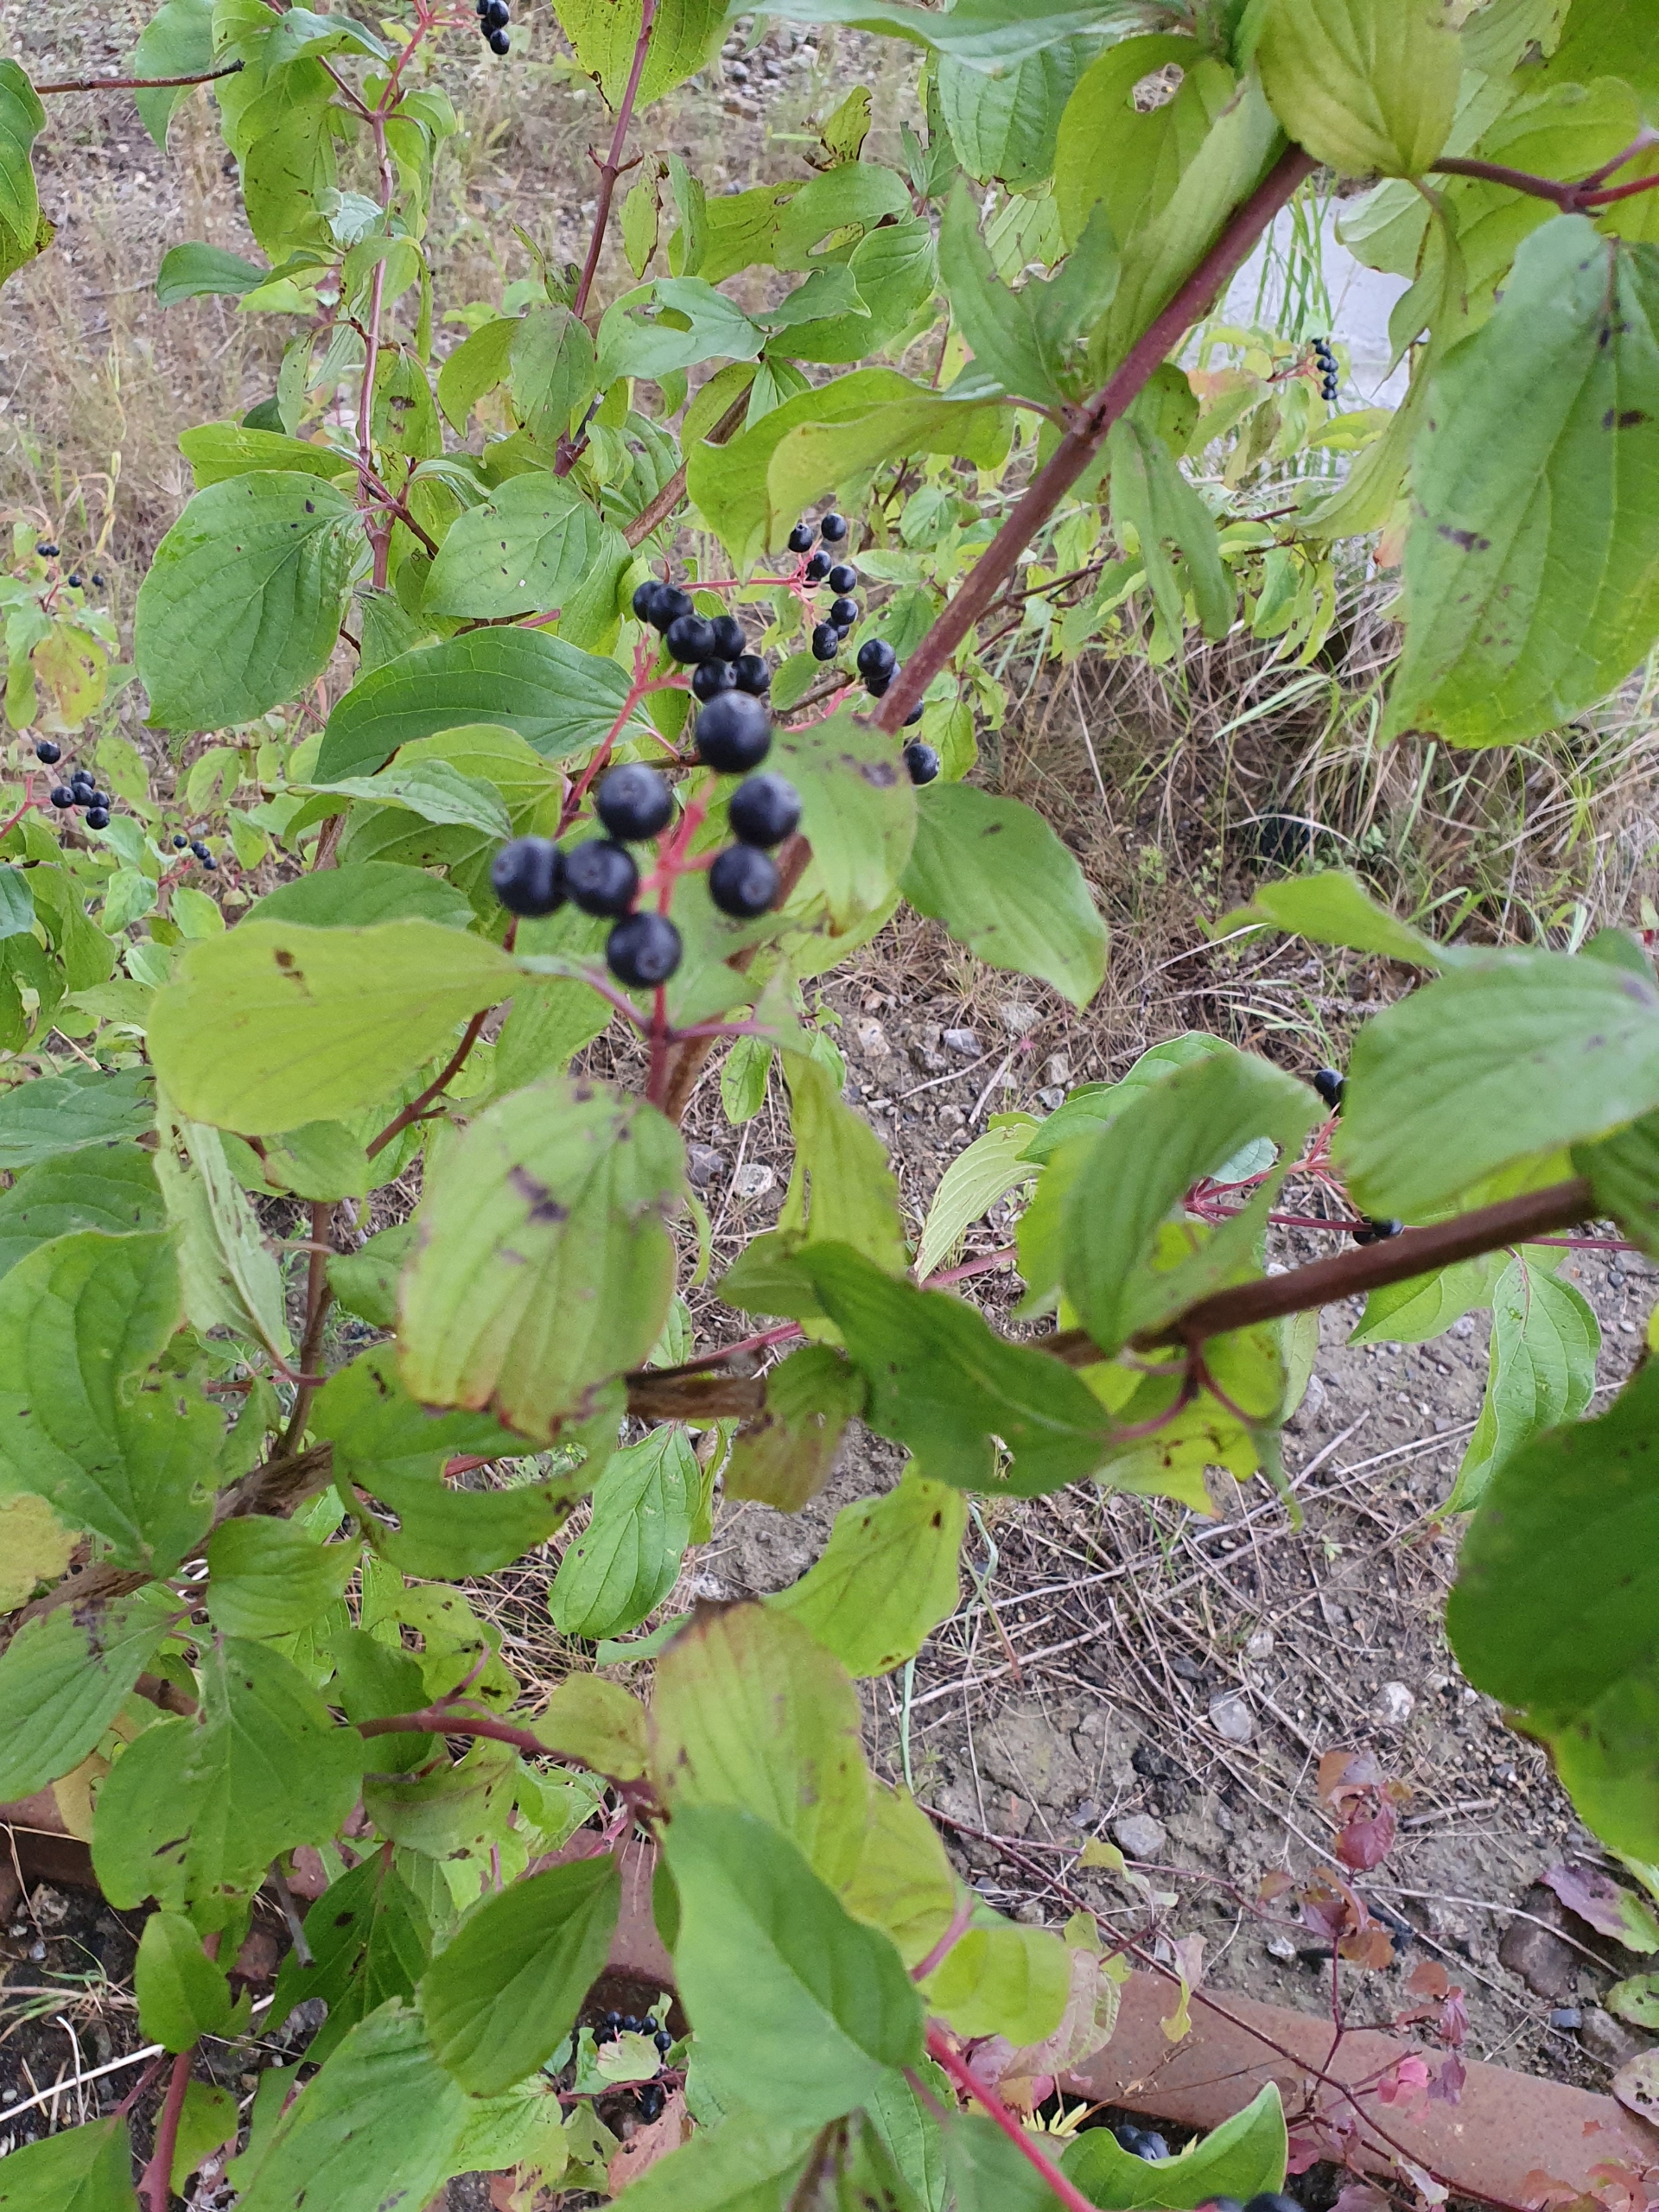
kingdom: Plantae
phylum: Tracheophyta
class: Magnoliopsida
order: Cornales
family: Cornaceae
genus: Cornus
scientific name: Cornus sanguinea
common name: Rød kornel
